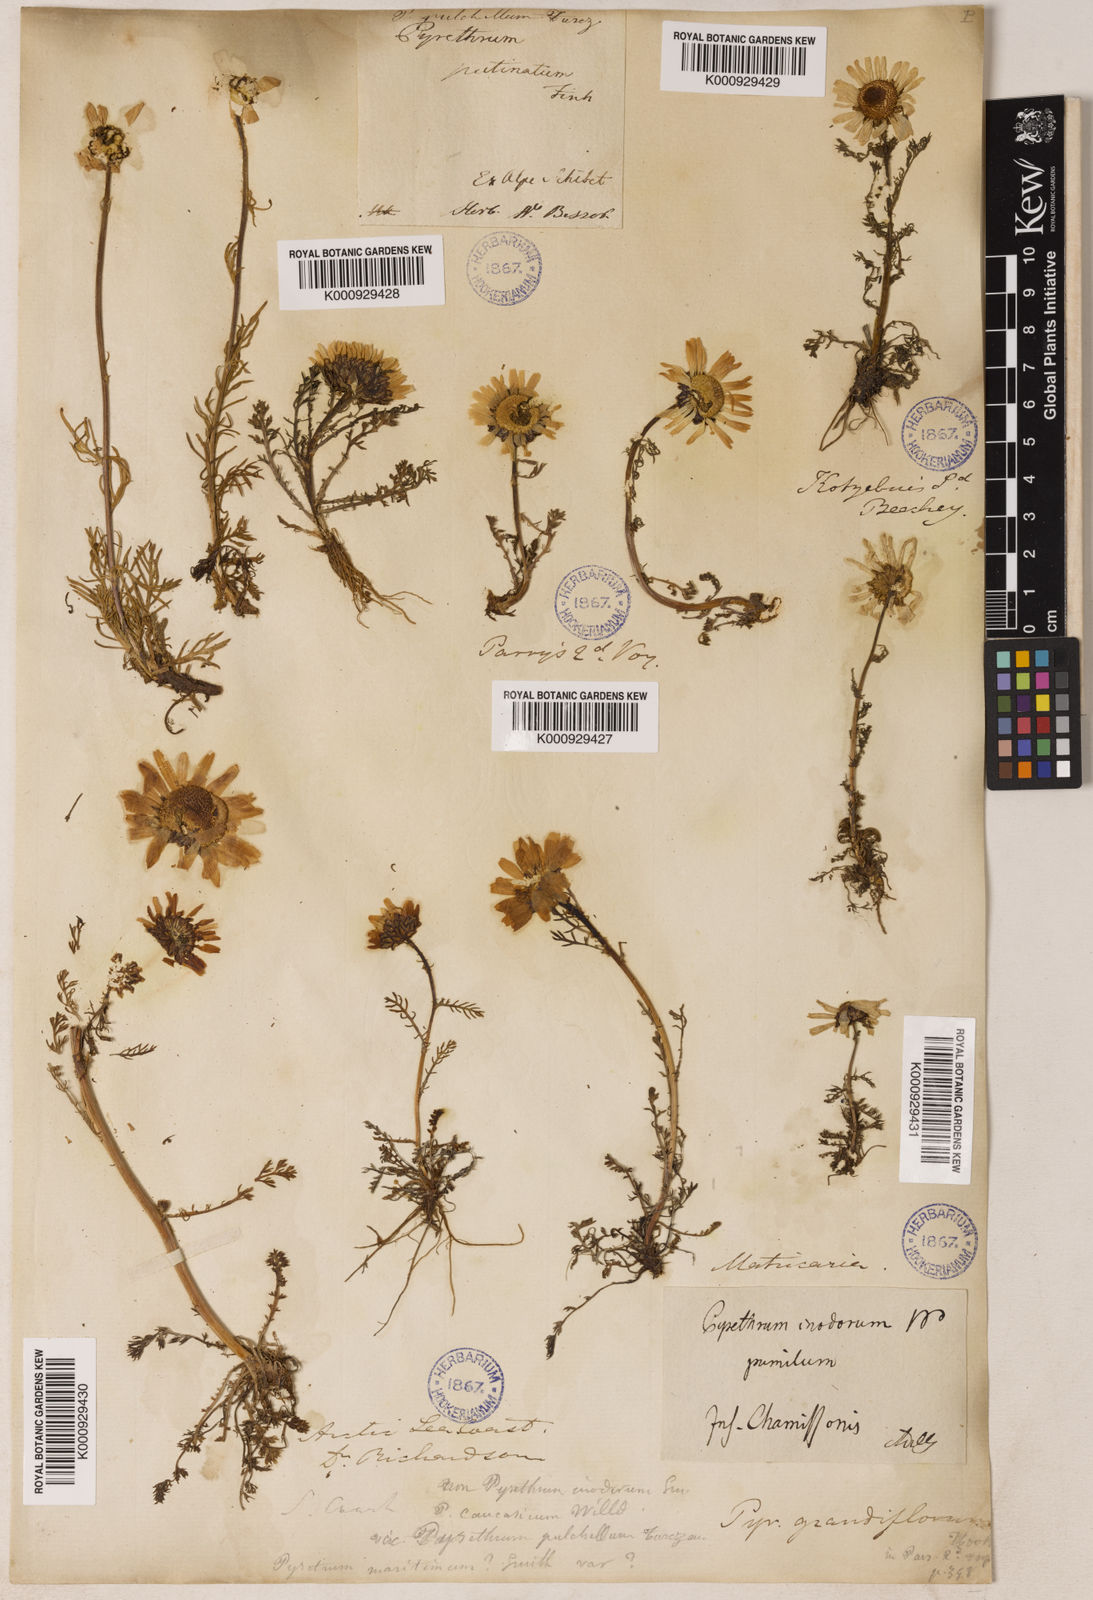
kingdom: Plantae
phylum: Tracheophyta
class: Magnoliopsida
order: Asterales
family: Asteraceae
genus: Tripleurospermum
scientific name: Tripleurospermum
